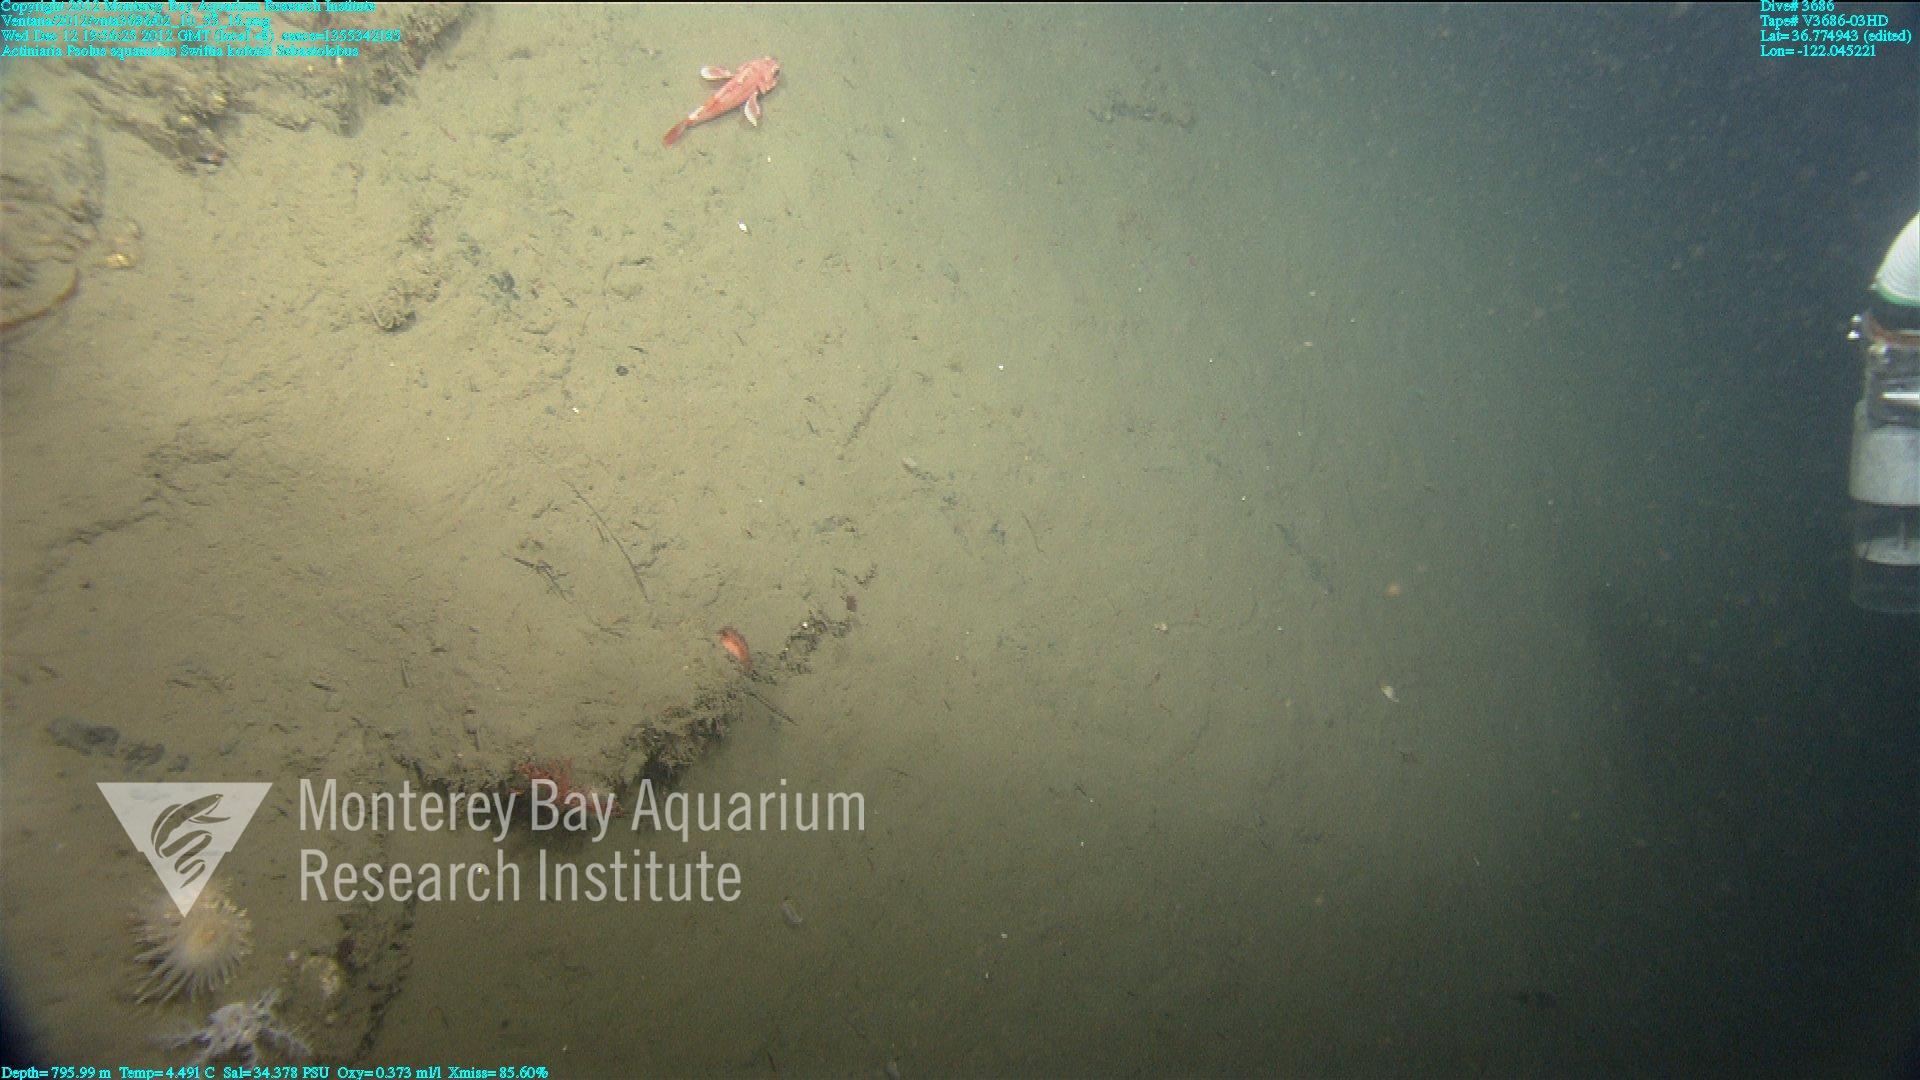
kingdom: Animalia
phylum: Cnidaria
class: Anthozoa
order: Malacalcyonacea
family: Gorgoniidae
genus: Callistephanus
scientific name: Callistephanus kofoidi
